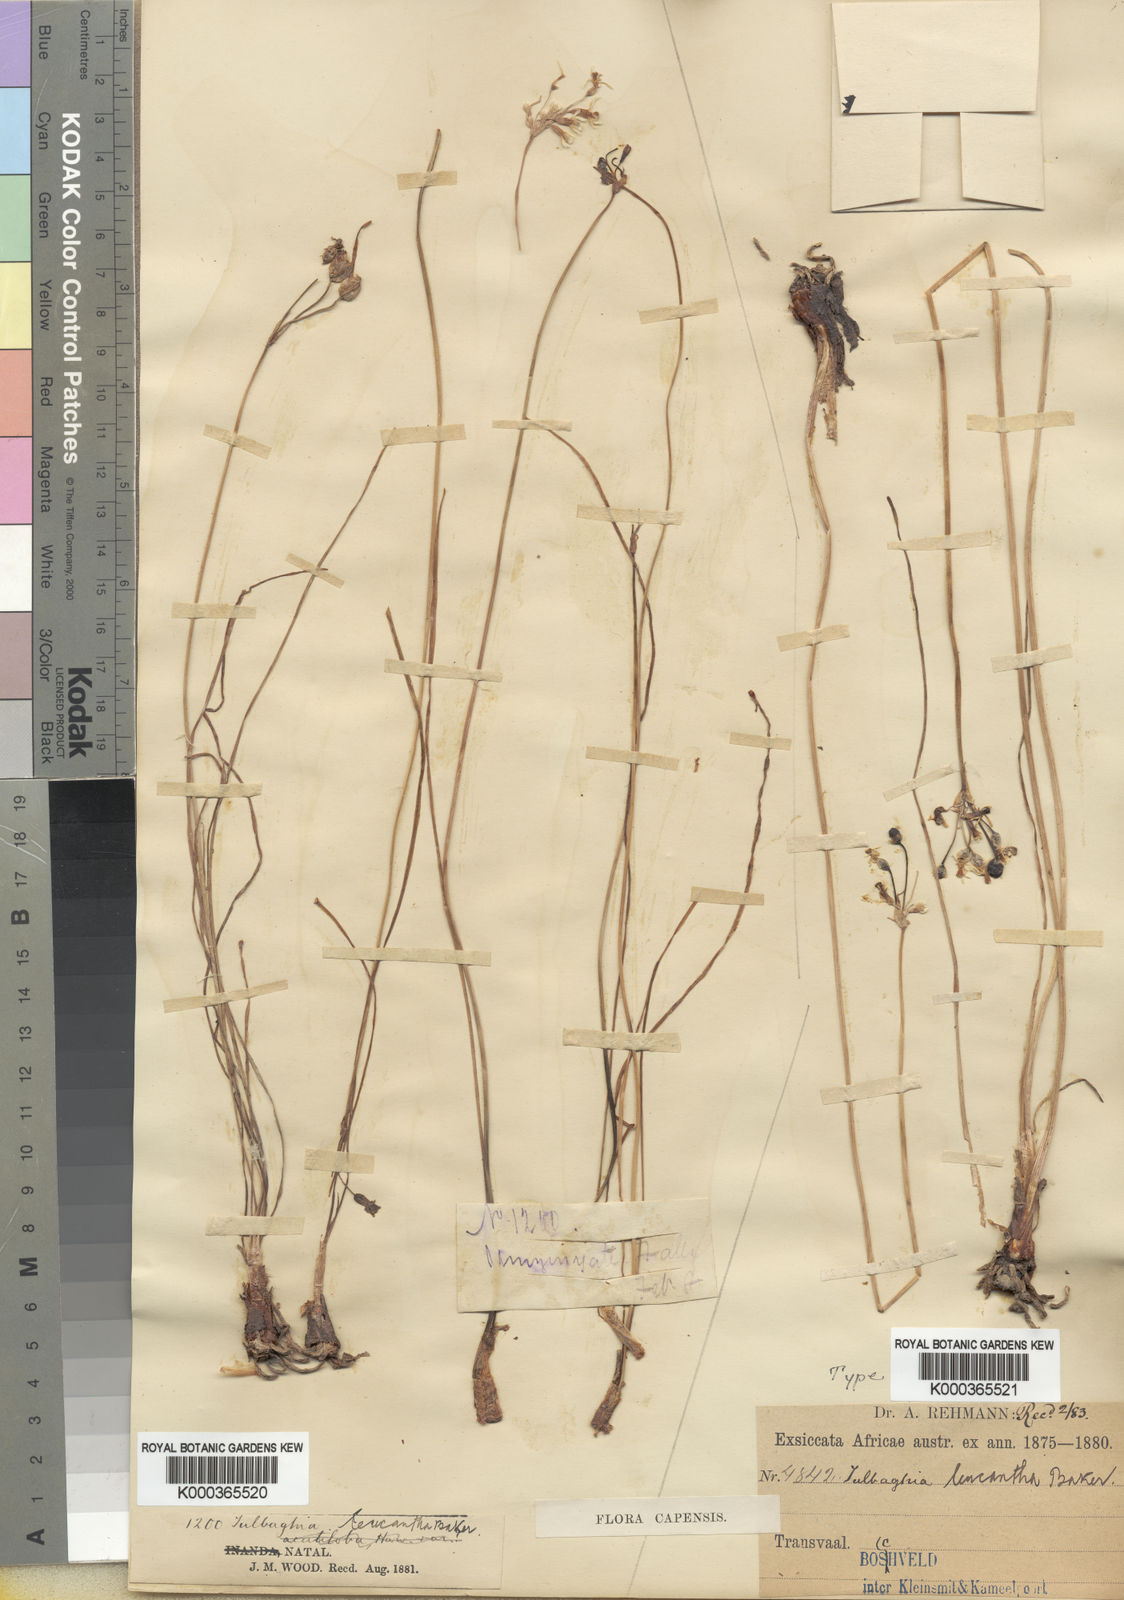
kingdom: Plantae
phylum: Tracheophyta
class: Liliopsida
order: Asparagales
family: Amaryllidaceae
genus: Tulbaghia
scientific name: Tulbaghia leucantha
